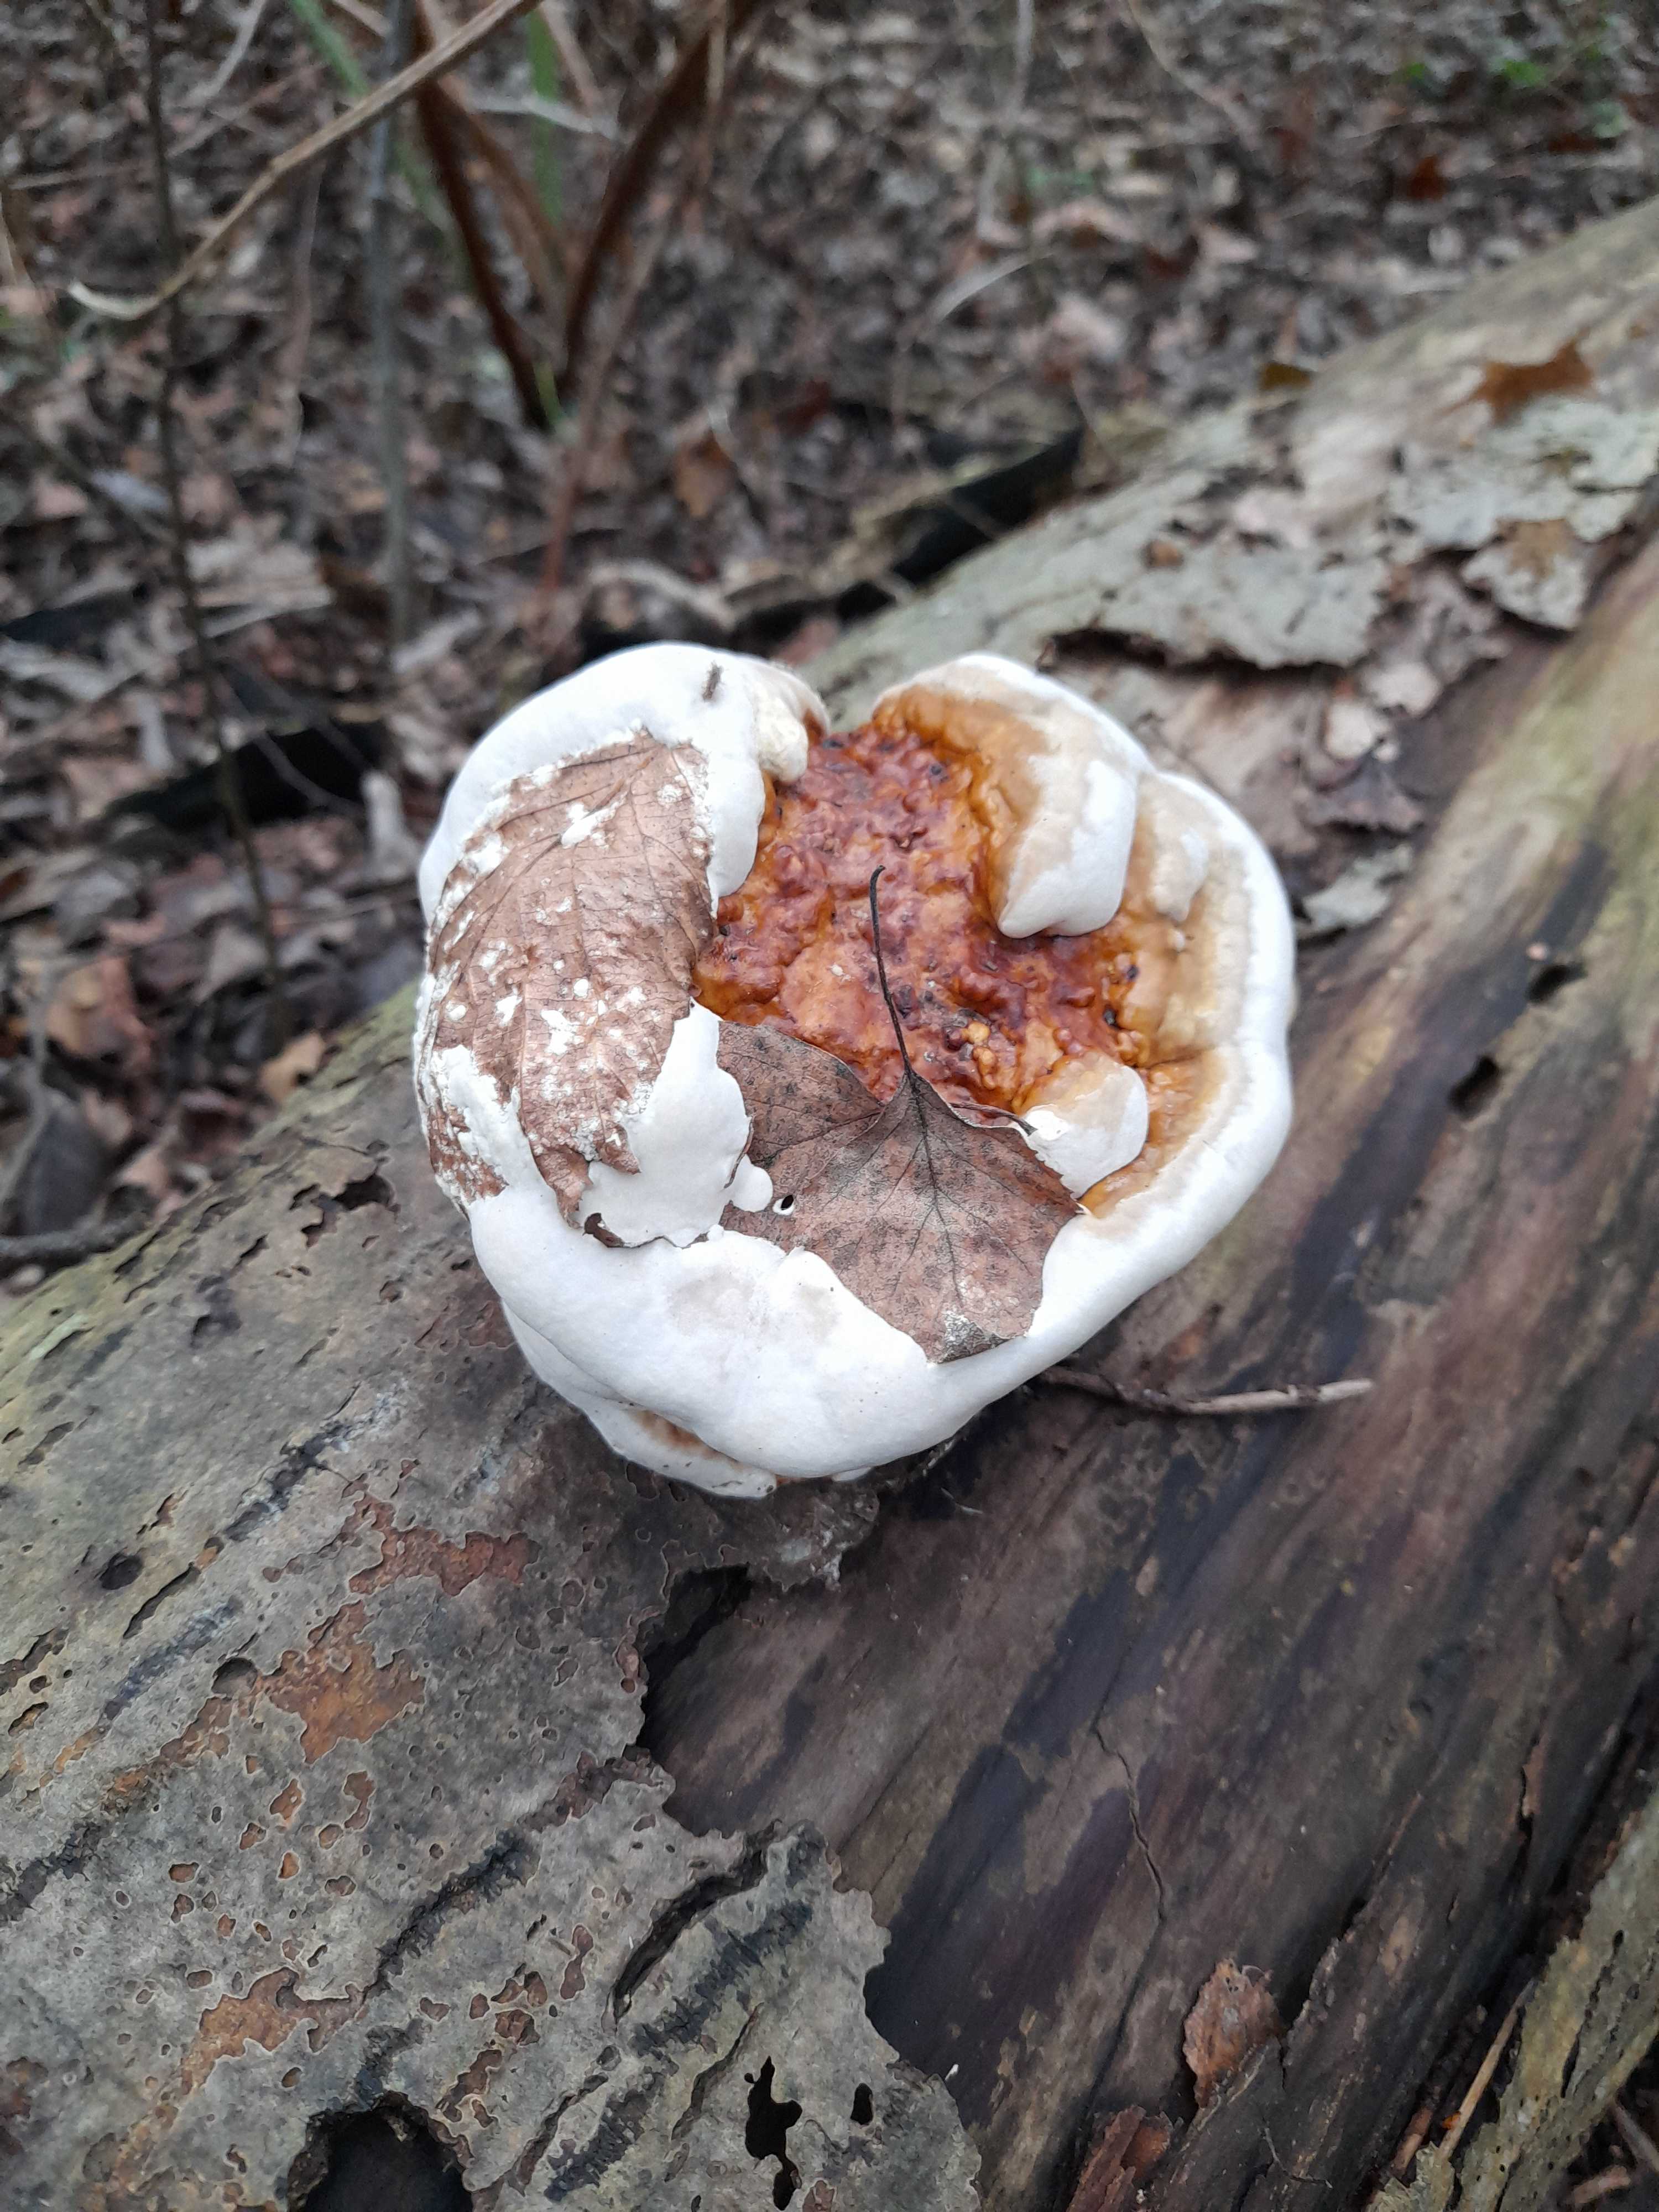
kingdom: Fungi
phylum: Basidiomycota
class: Agaricomycetes
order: Polyporales
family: Fomitopsidaceae
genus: Fomitopsis
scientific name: Fomitopsis pinicola
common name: randbæltet hovporesvamp
